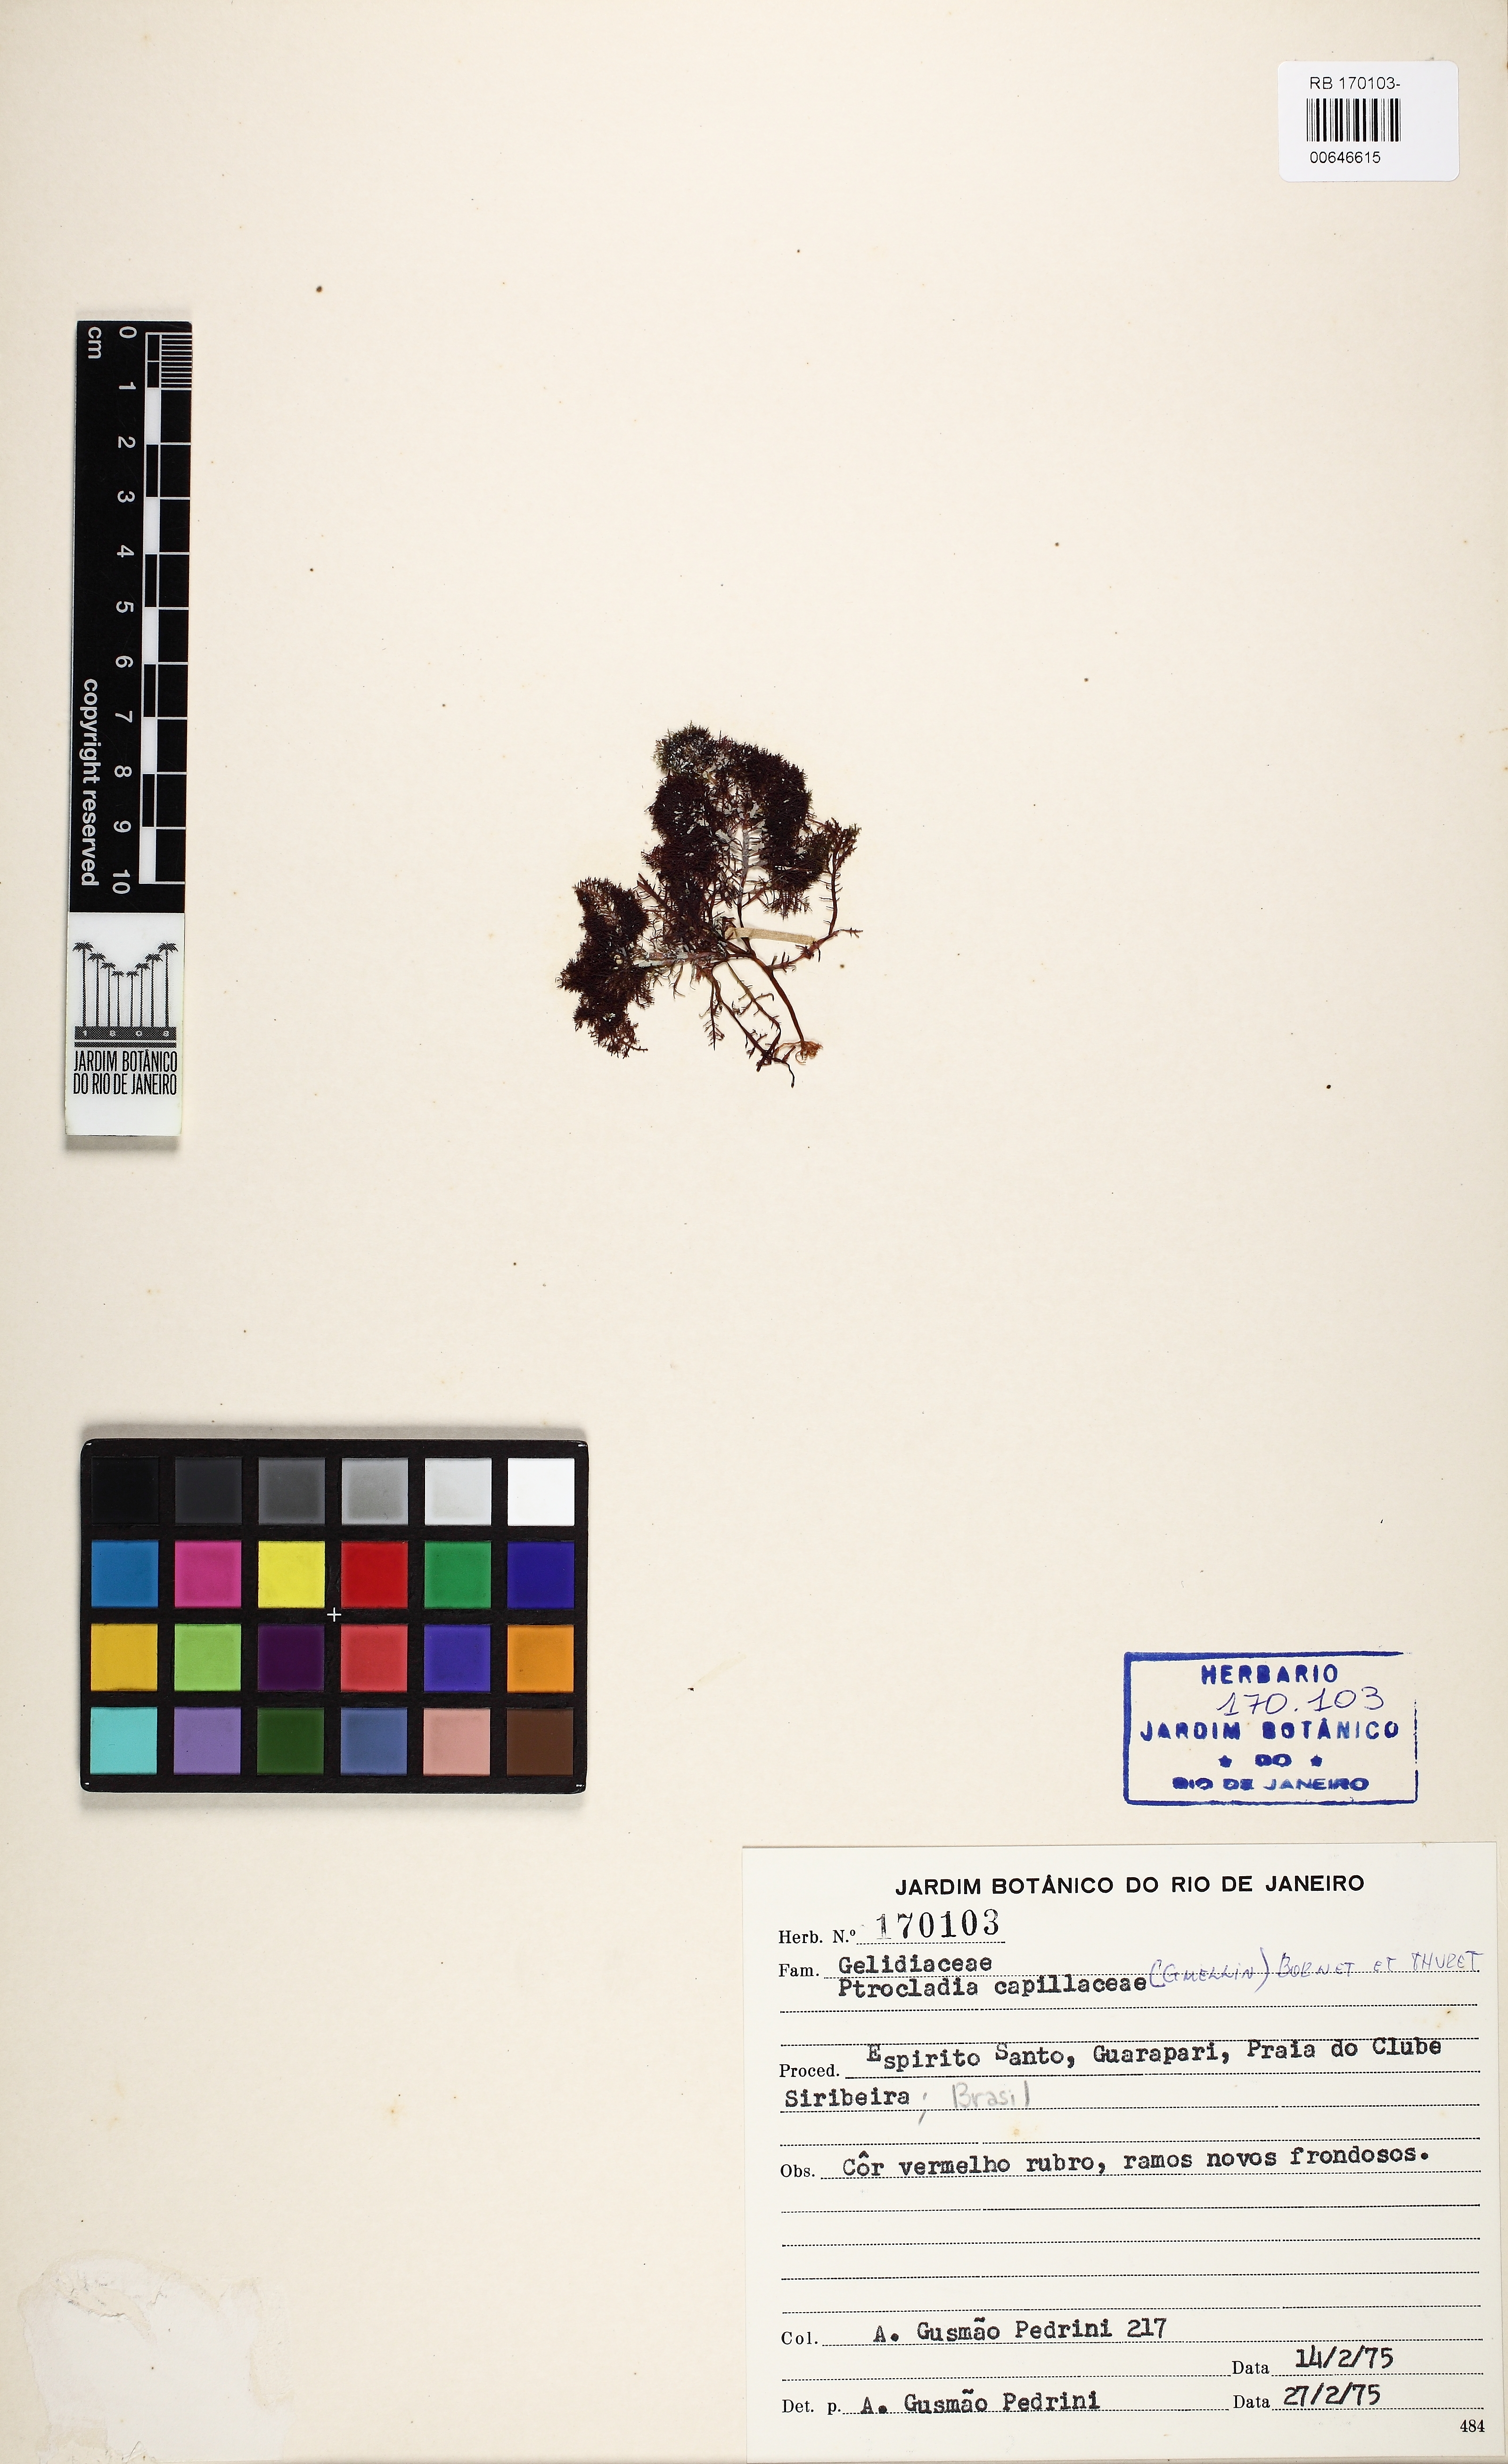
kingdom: Plantae
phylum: Rhodophyta
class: Florideophyceae
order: Gelidiales
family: Pterocladiaceae
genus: Pterocladiella
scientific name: Pterocladiella capillacea
